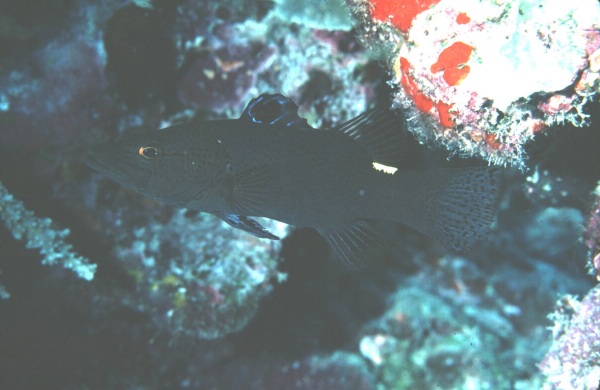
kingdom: Animalia
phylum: Chordata
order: Perciformes
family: Serranidae
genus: Belonoperca
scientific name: Belonoperca chabanaudi
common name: Arrowhead soapfish
